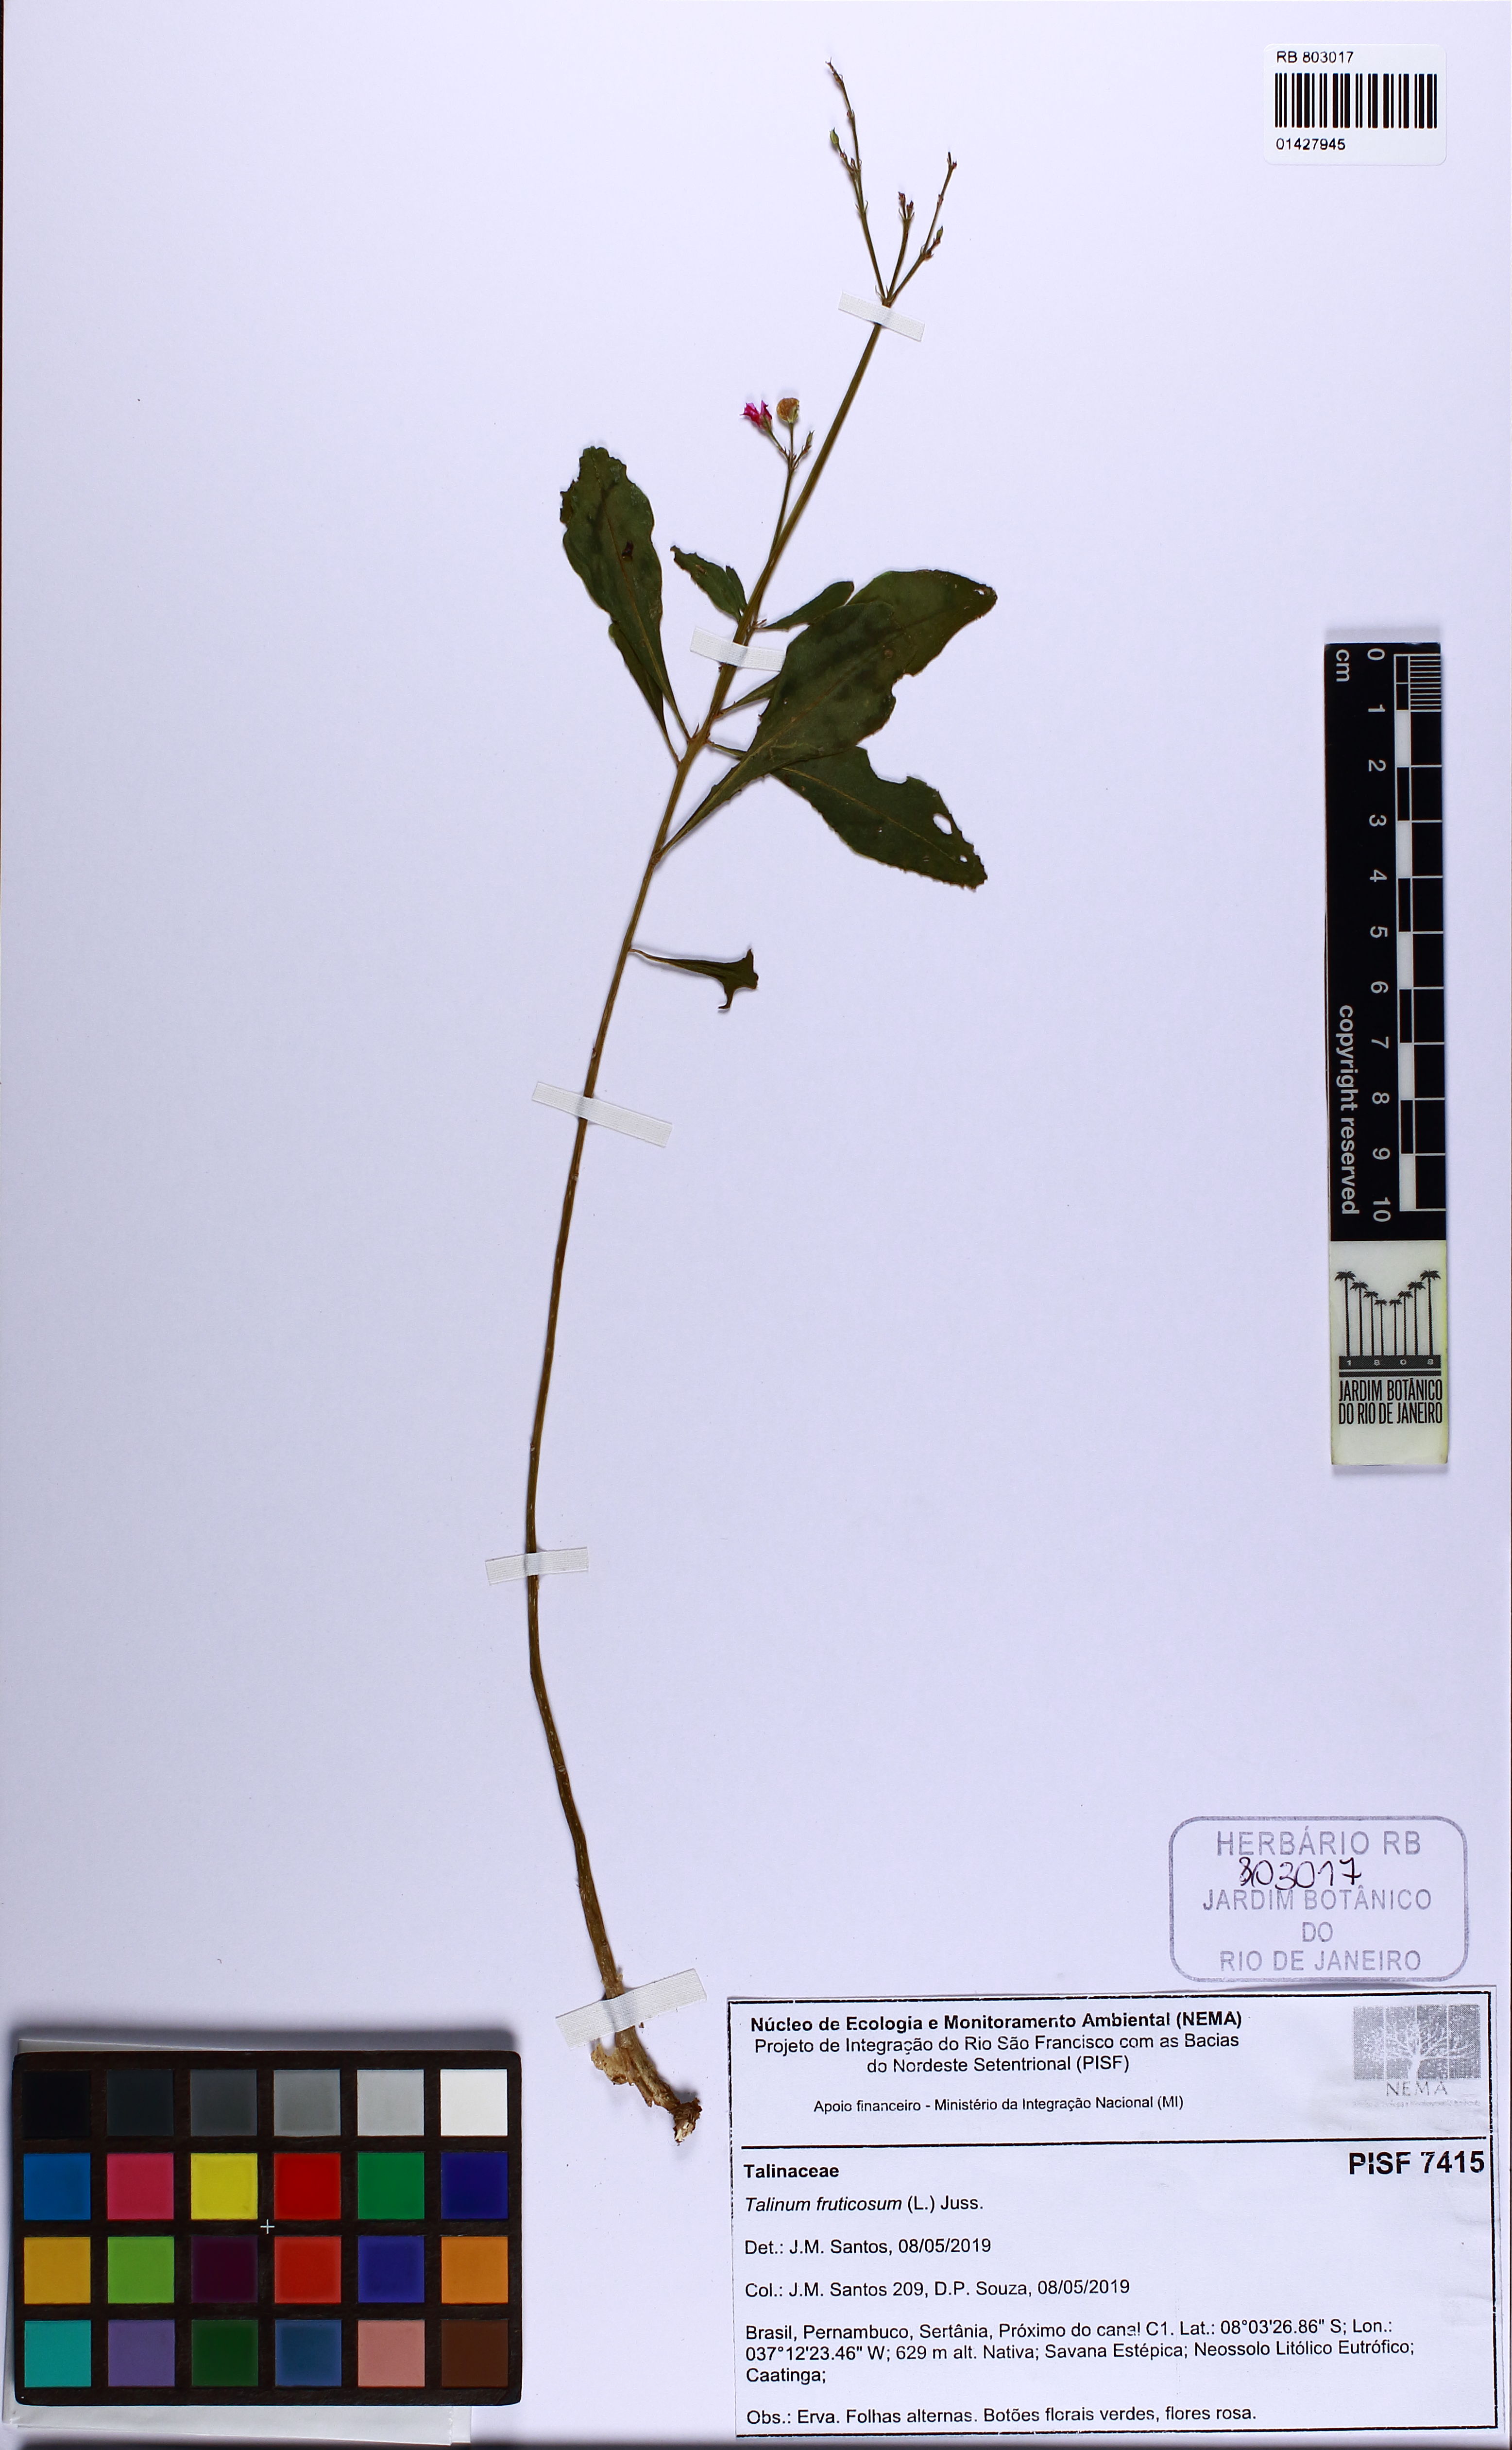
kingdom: Plantae
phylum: Tracheophyta
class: Magnoliopsida
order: Caryophyllales
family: Talinaceae
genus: Talinum
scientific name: Talinum fruticosum
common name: Verdolaga-francesa
